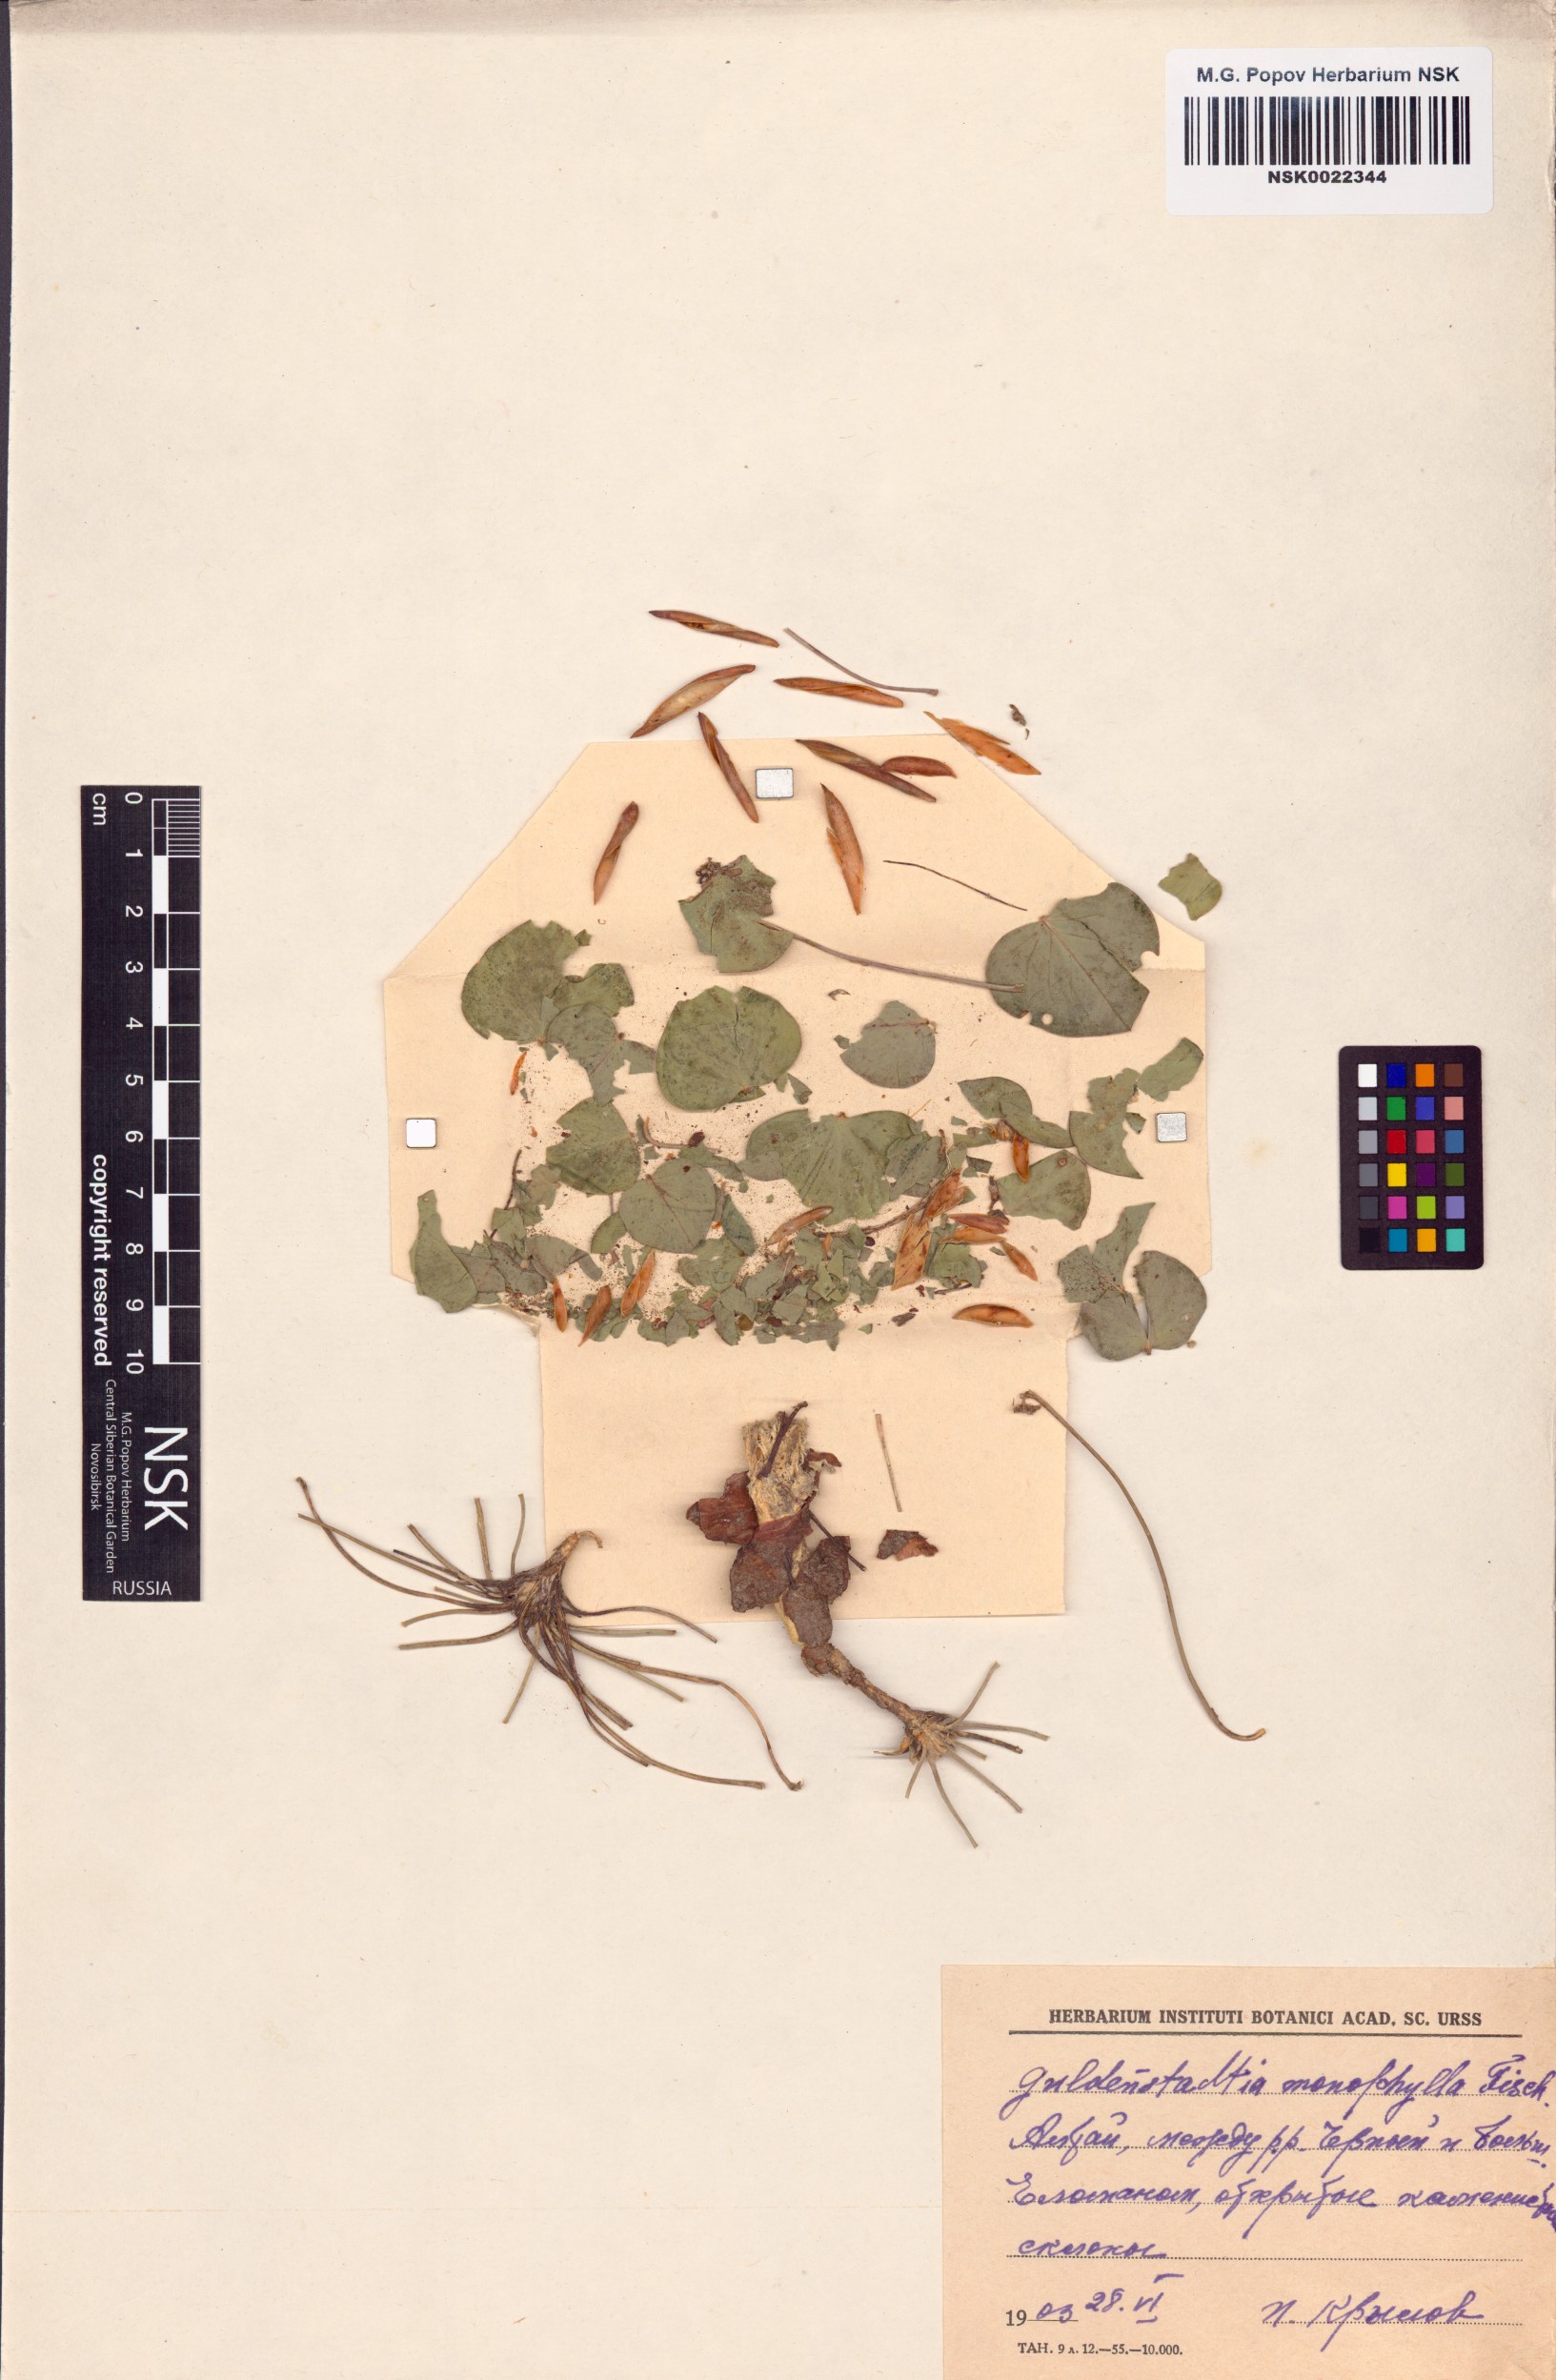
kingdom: Plantae
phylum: Tracheophyta
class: Magnoliopsida
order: Fabales
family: Fabaceae
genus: Gueldenstaedtia
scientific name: Gueldenstaedtia monophylla
